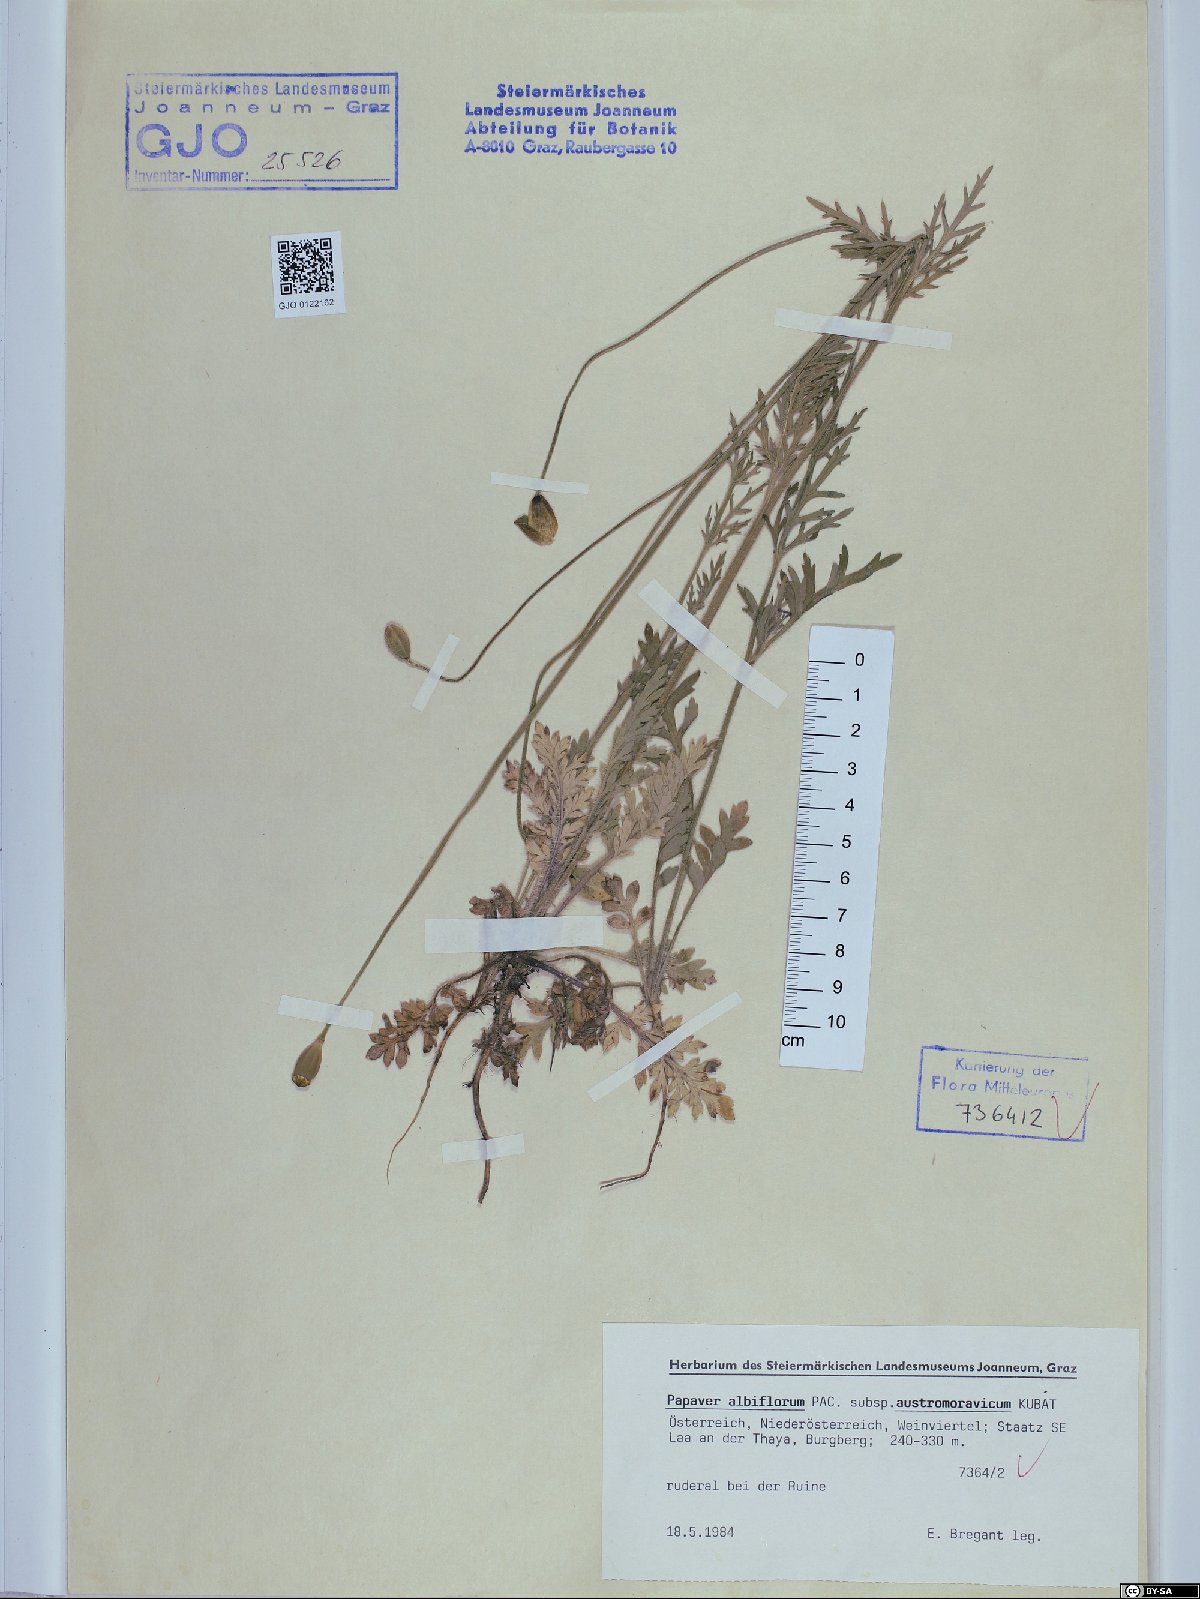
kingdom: Plantae
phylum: Tracheophyta
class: Magnoliopsida
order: Ranunculales
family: Papaveraceae
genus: Papaver
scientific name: Papaver dubium
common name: Long-headed poppy
